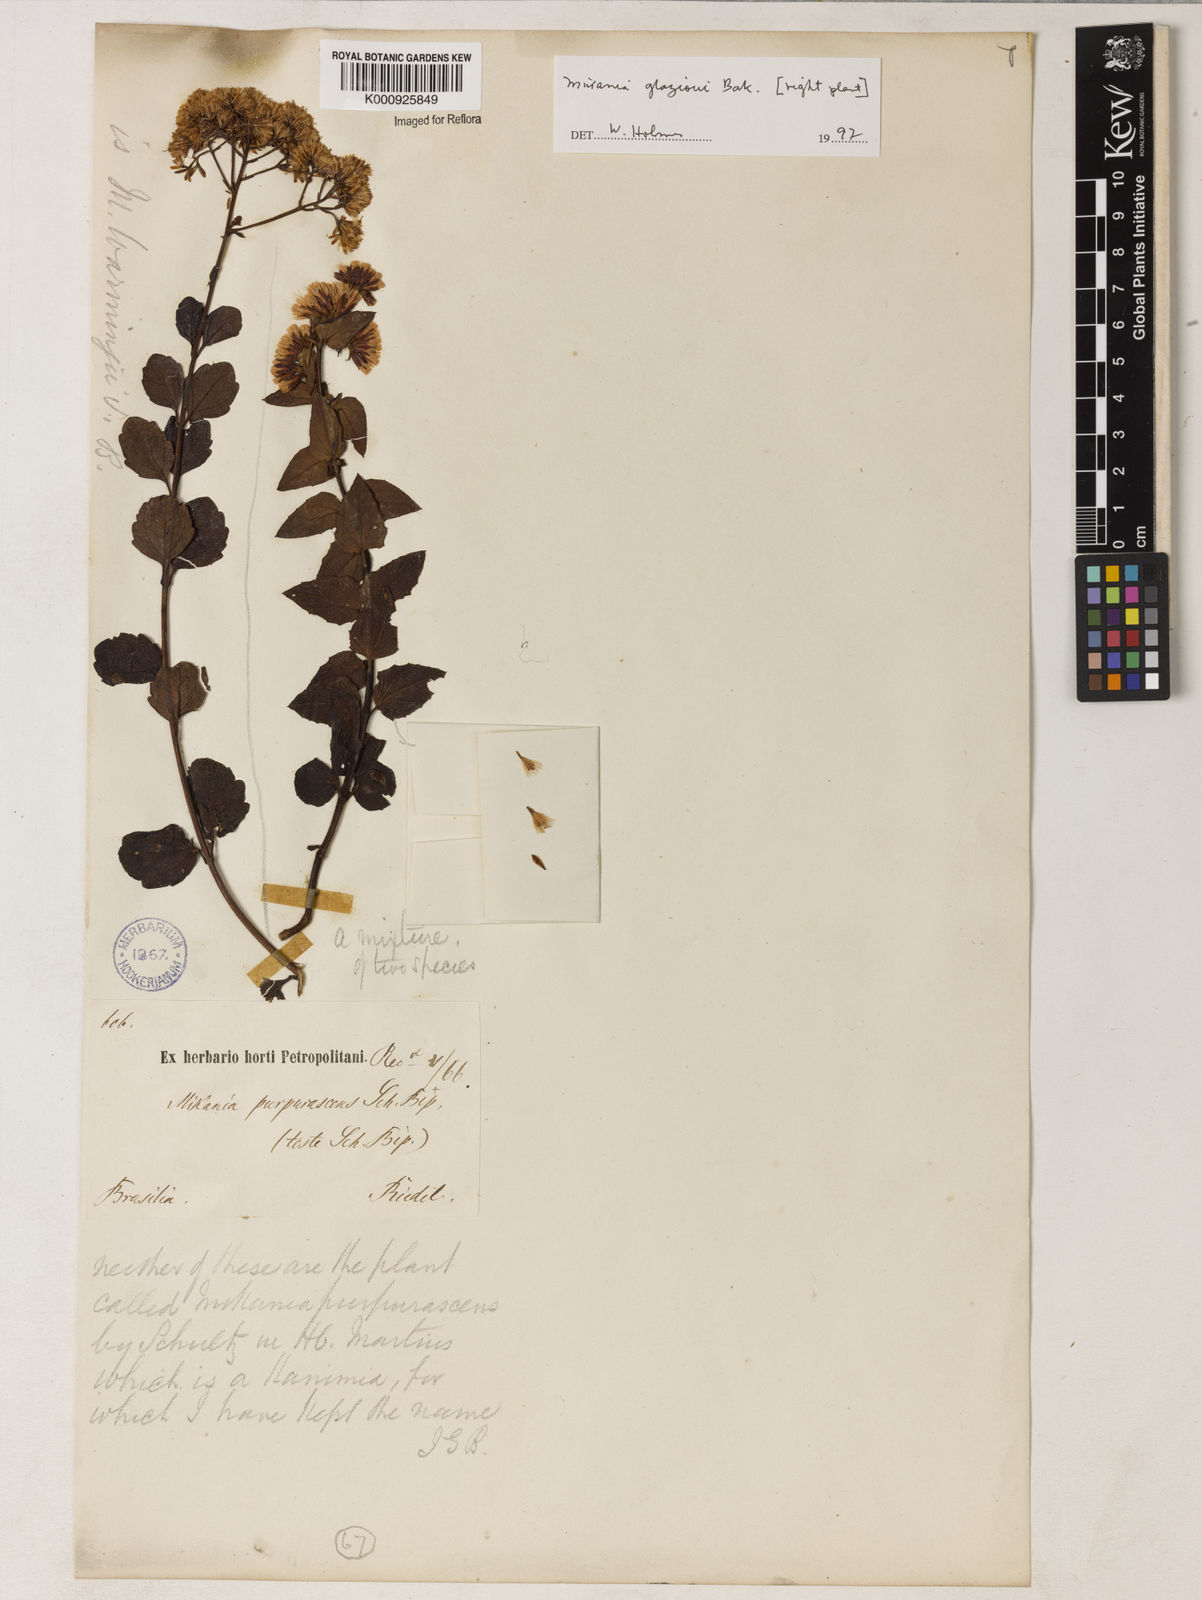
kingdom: Plantae
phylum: Tracheophyta
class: Magnoliopsida
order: Asterales
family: Asteraceae
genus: Mikania
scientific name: Mikania
